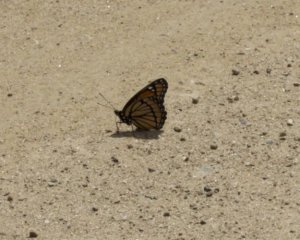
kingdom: Animalia
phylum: Arthropoda
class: Insecta
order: Lepidoptera
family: Nymphalidae
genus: Limenitis
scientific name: Limenitis archippus
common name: Viceroy
